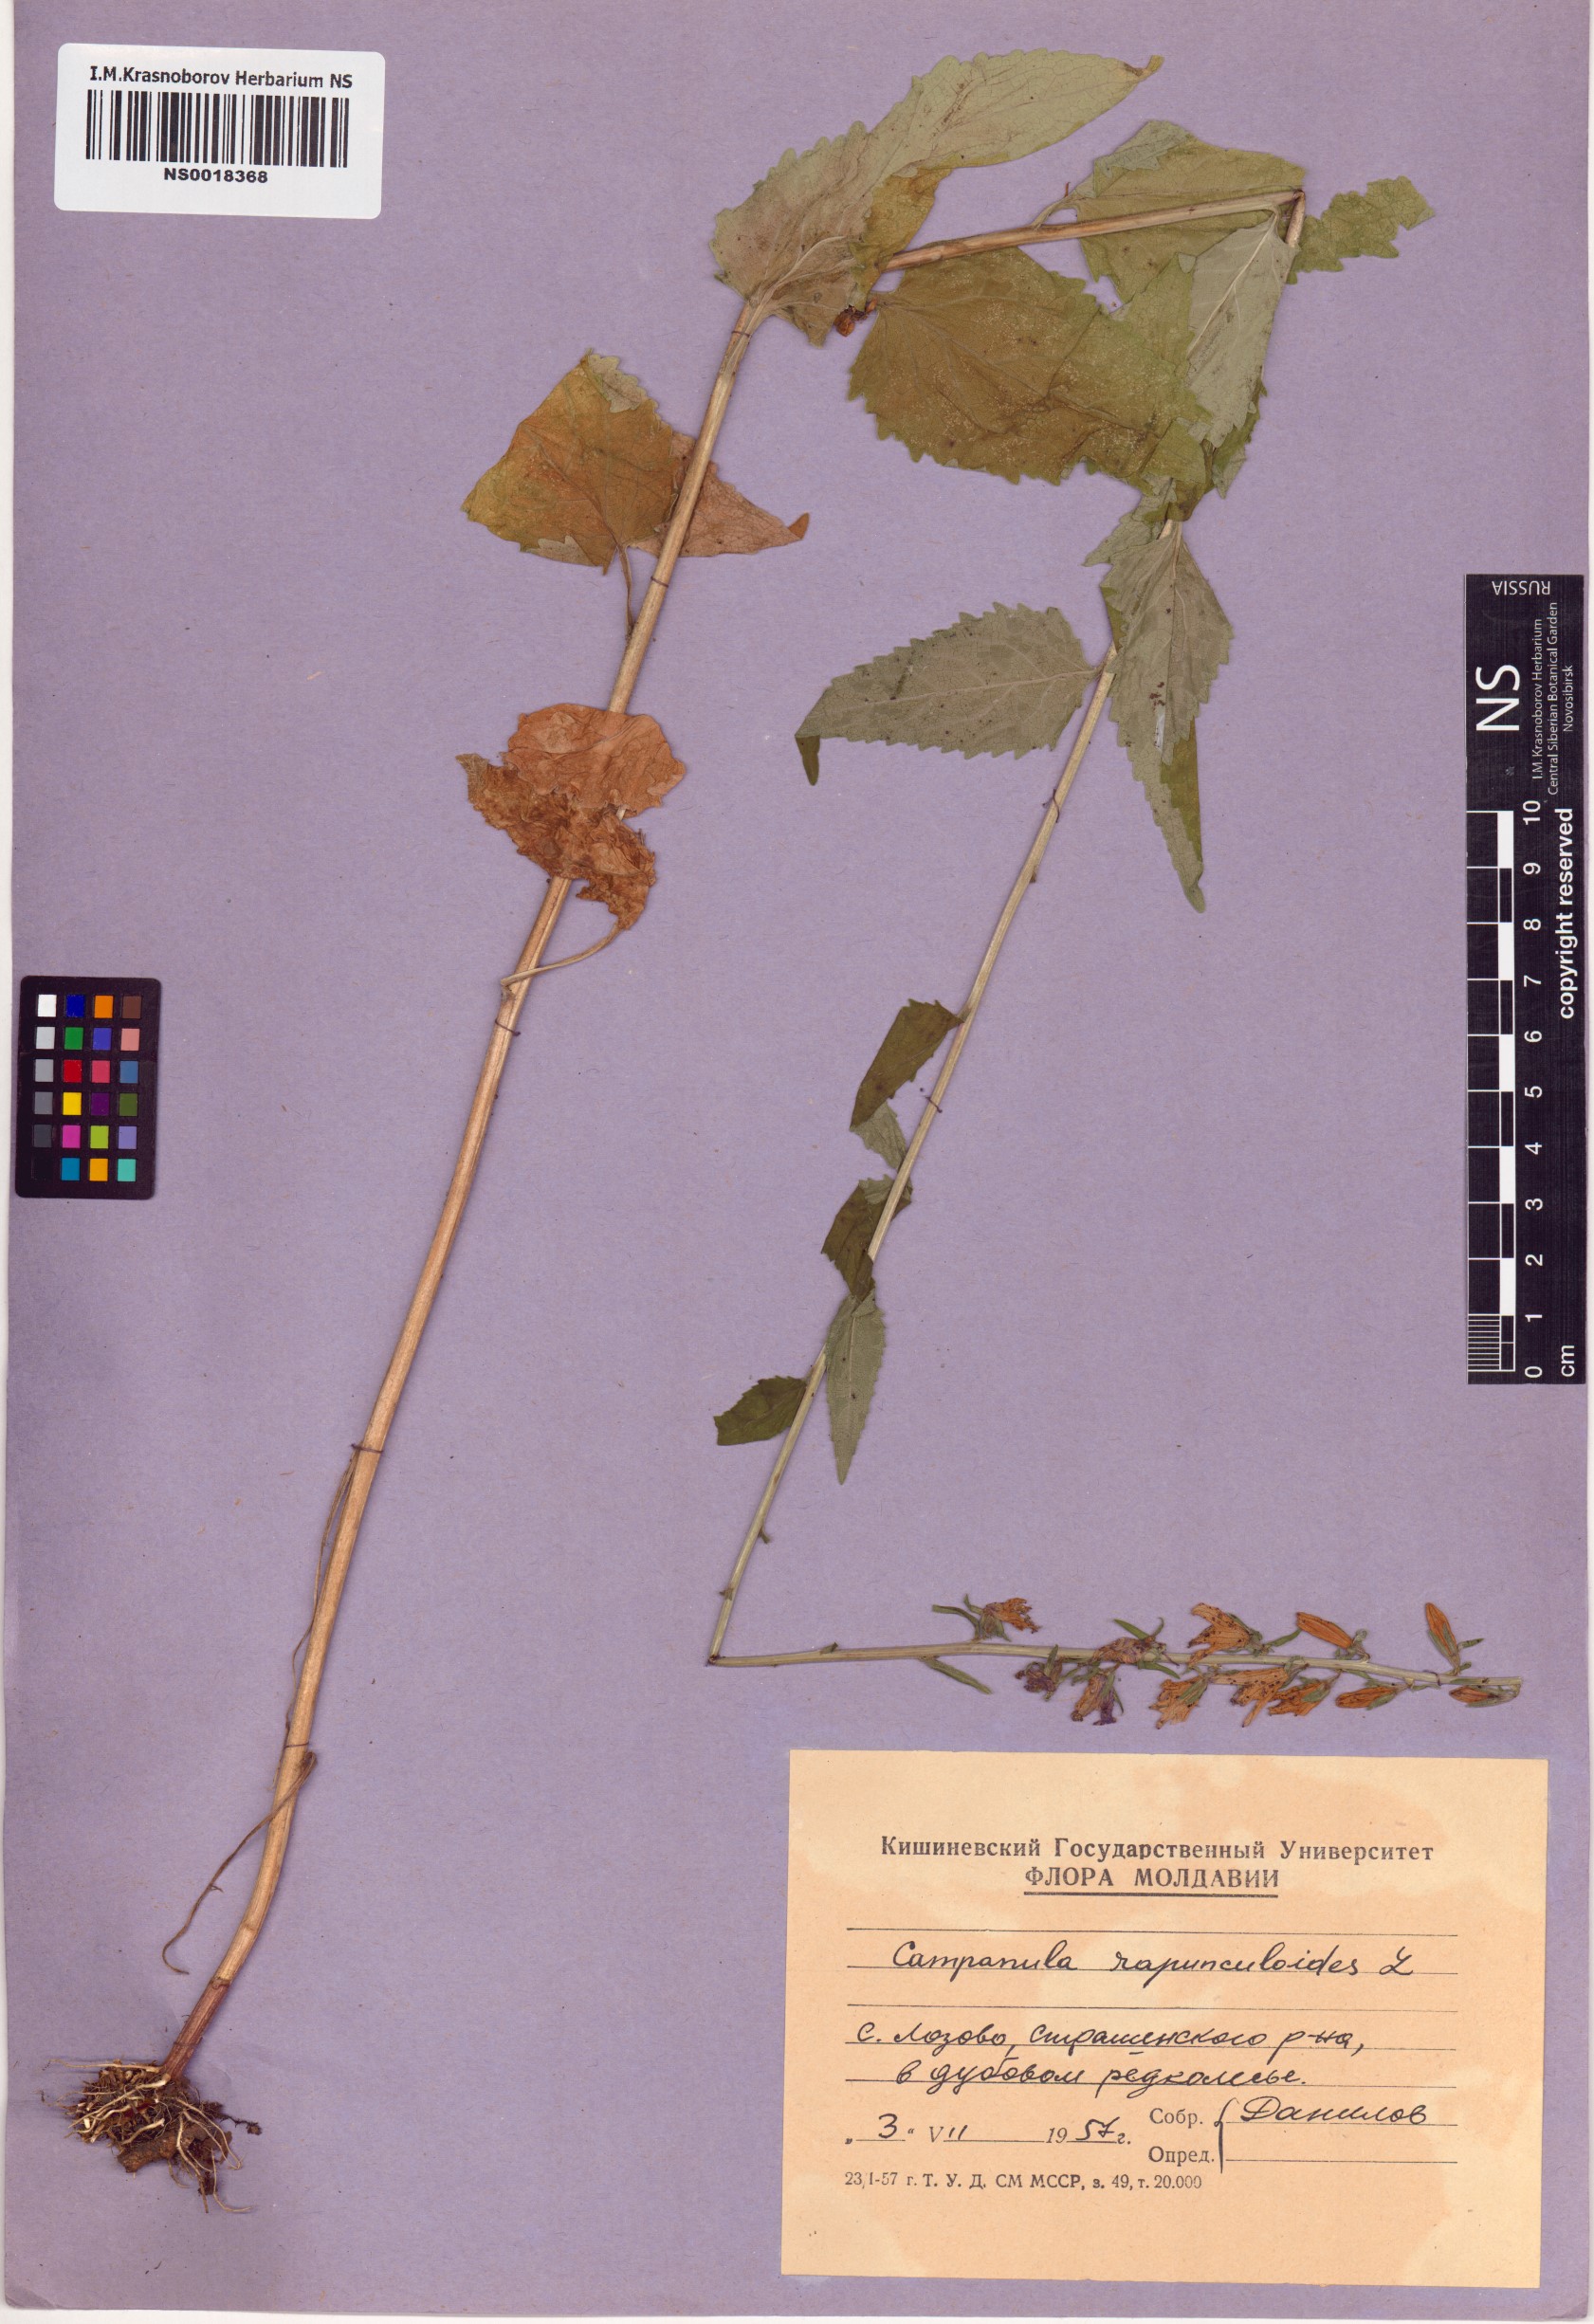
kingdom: Plantae
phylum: Tracheophyta
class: Magnoliopsida
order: Asterales
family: Campanulaceae
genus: Campanula
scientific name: Campanula rapunculoides
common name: Creeping bellflower
